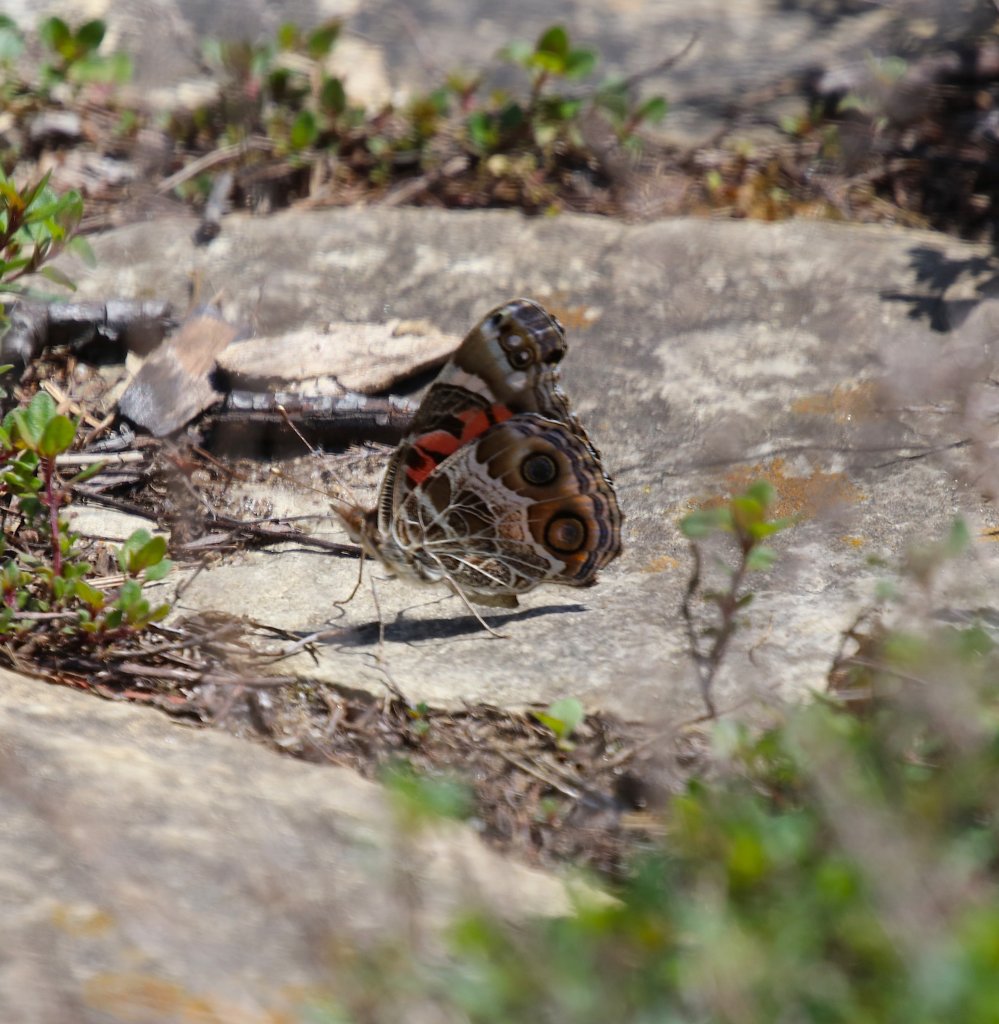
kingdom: Animalia
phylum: Arthropoda
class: Insecta
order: Lepidoptera
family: Nymphalidae
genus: Vanessa
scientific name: Vanessa virginiensis
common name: American Lady
